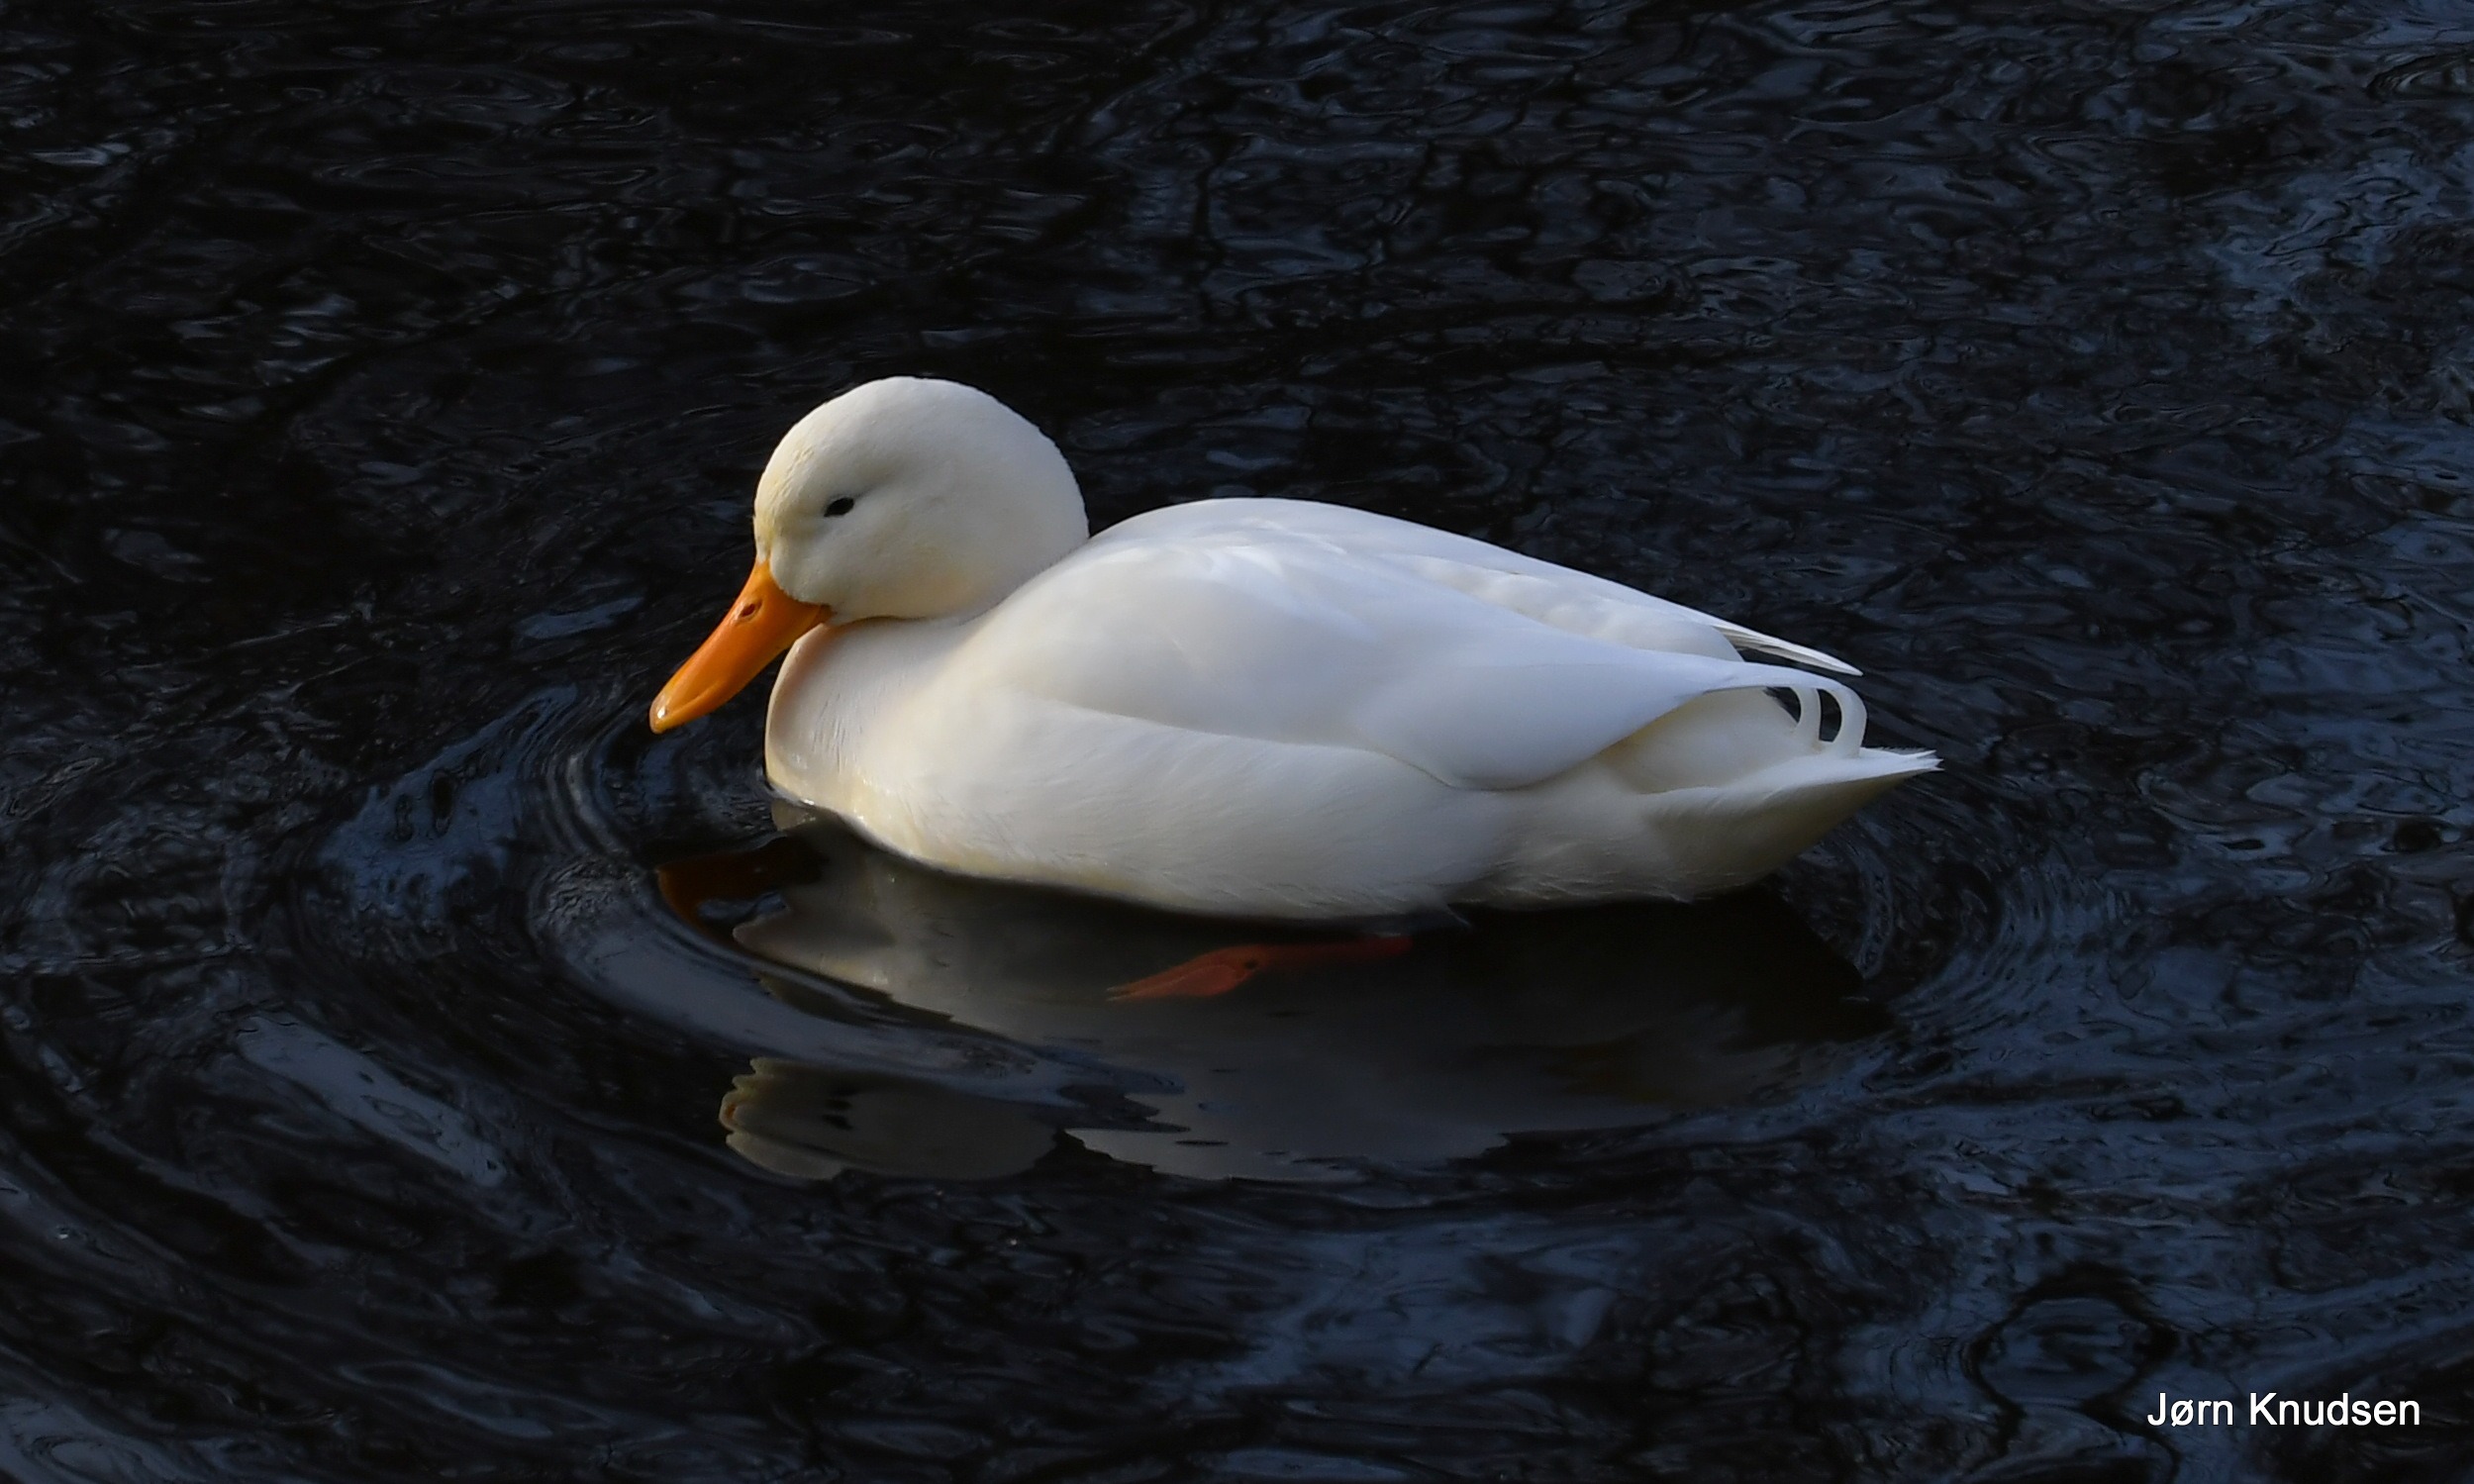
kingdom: Animalia
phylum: Chordata
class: Aves
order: Anseriformes
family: Anatidae
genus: Anas
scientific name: Anas platyrhynchos
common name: Gråand
